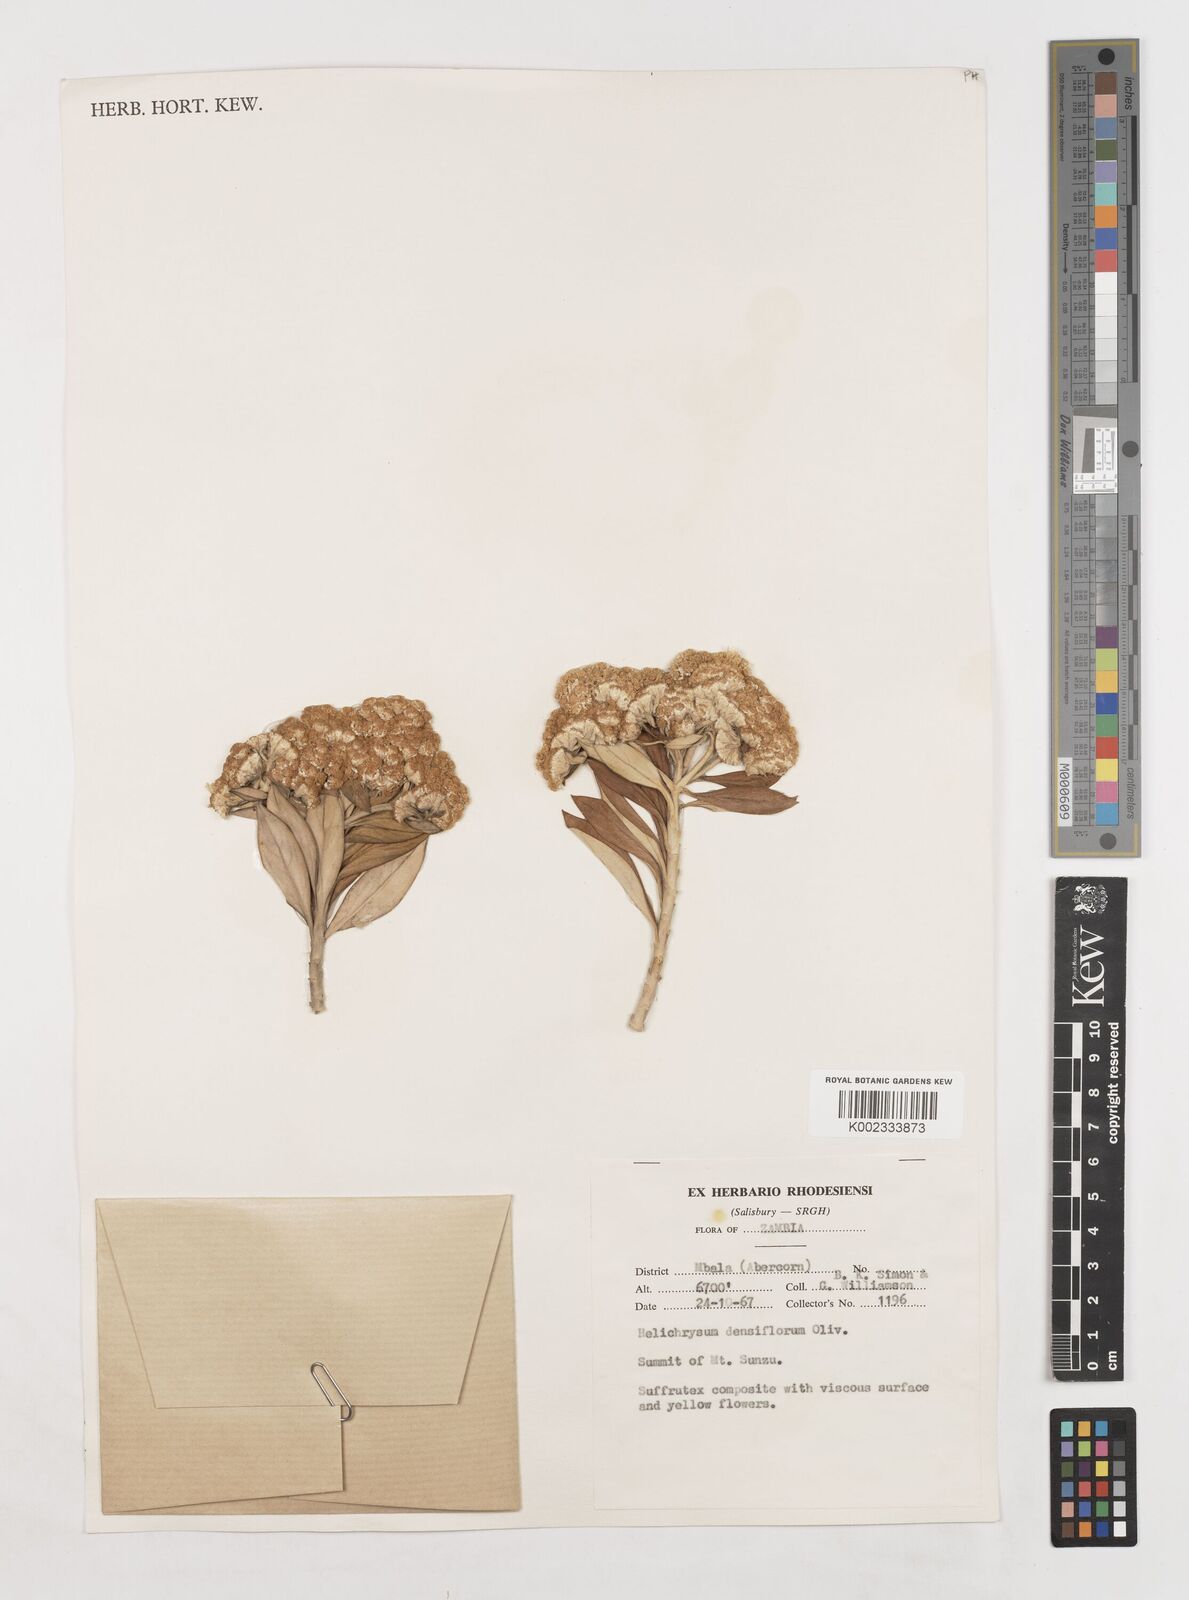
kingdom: Plantae
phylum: Tracheophyta
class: Magnoliopsida
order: Asterales
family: Asteraceae
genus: Helichrysum
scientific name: Helichrysum densiflorum
